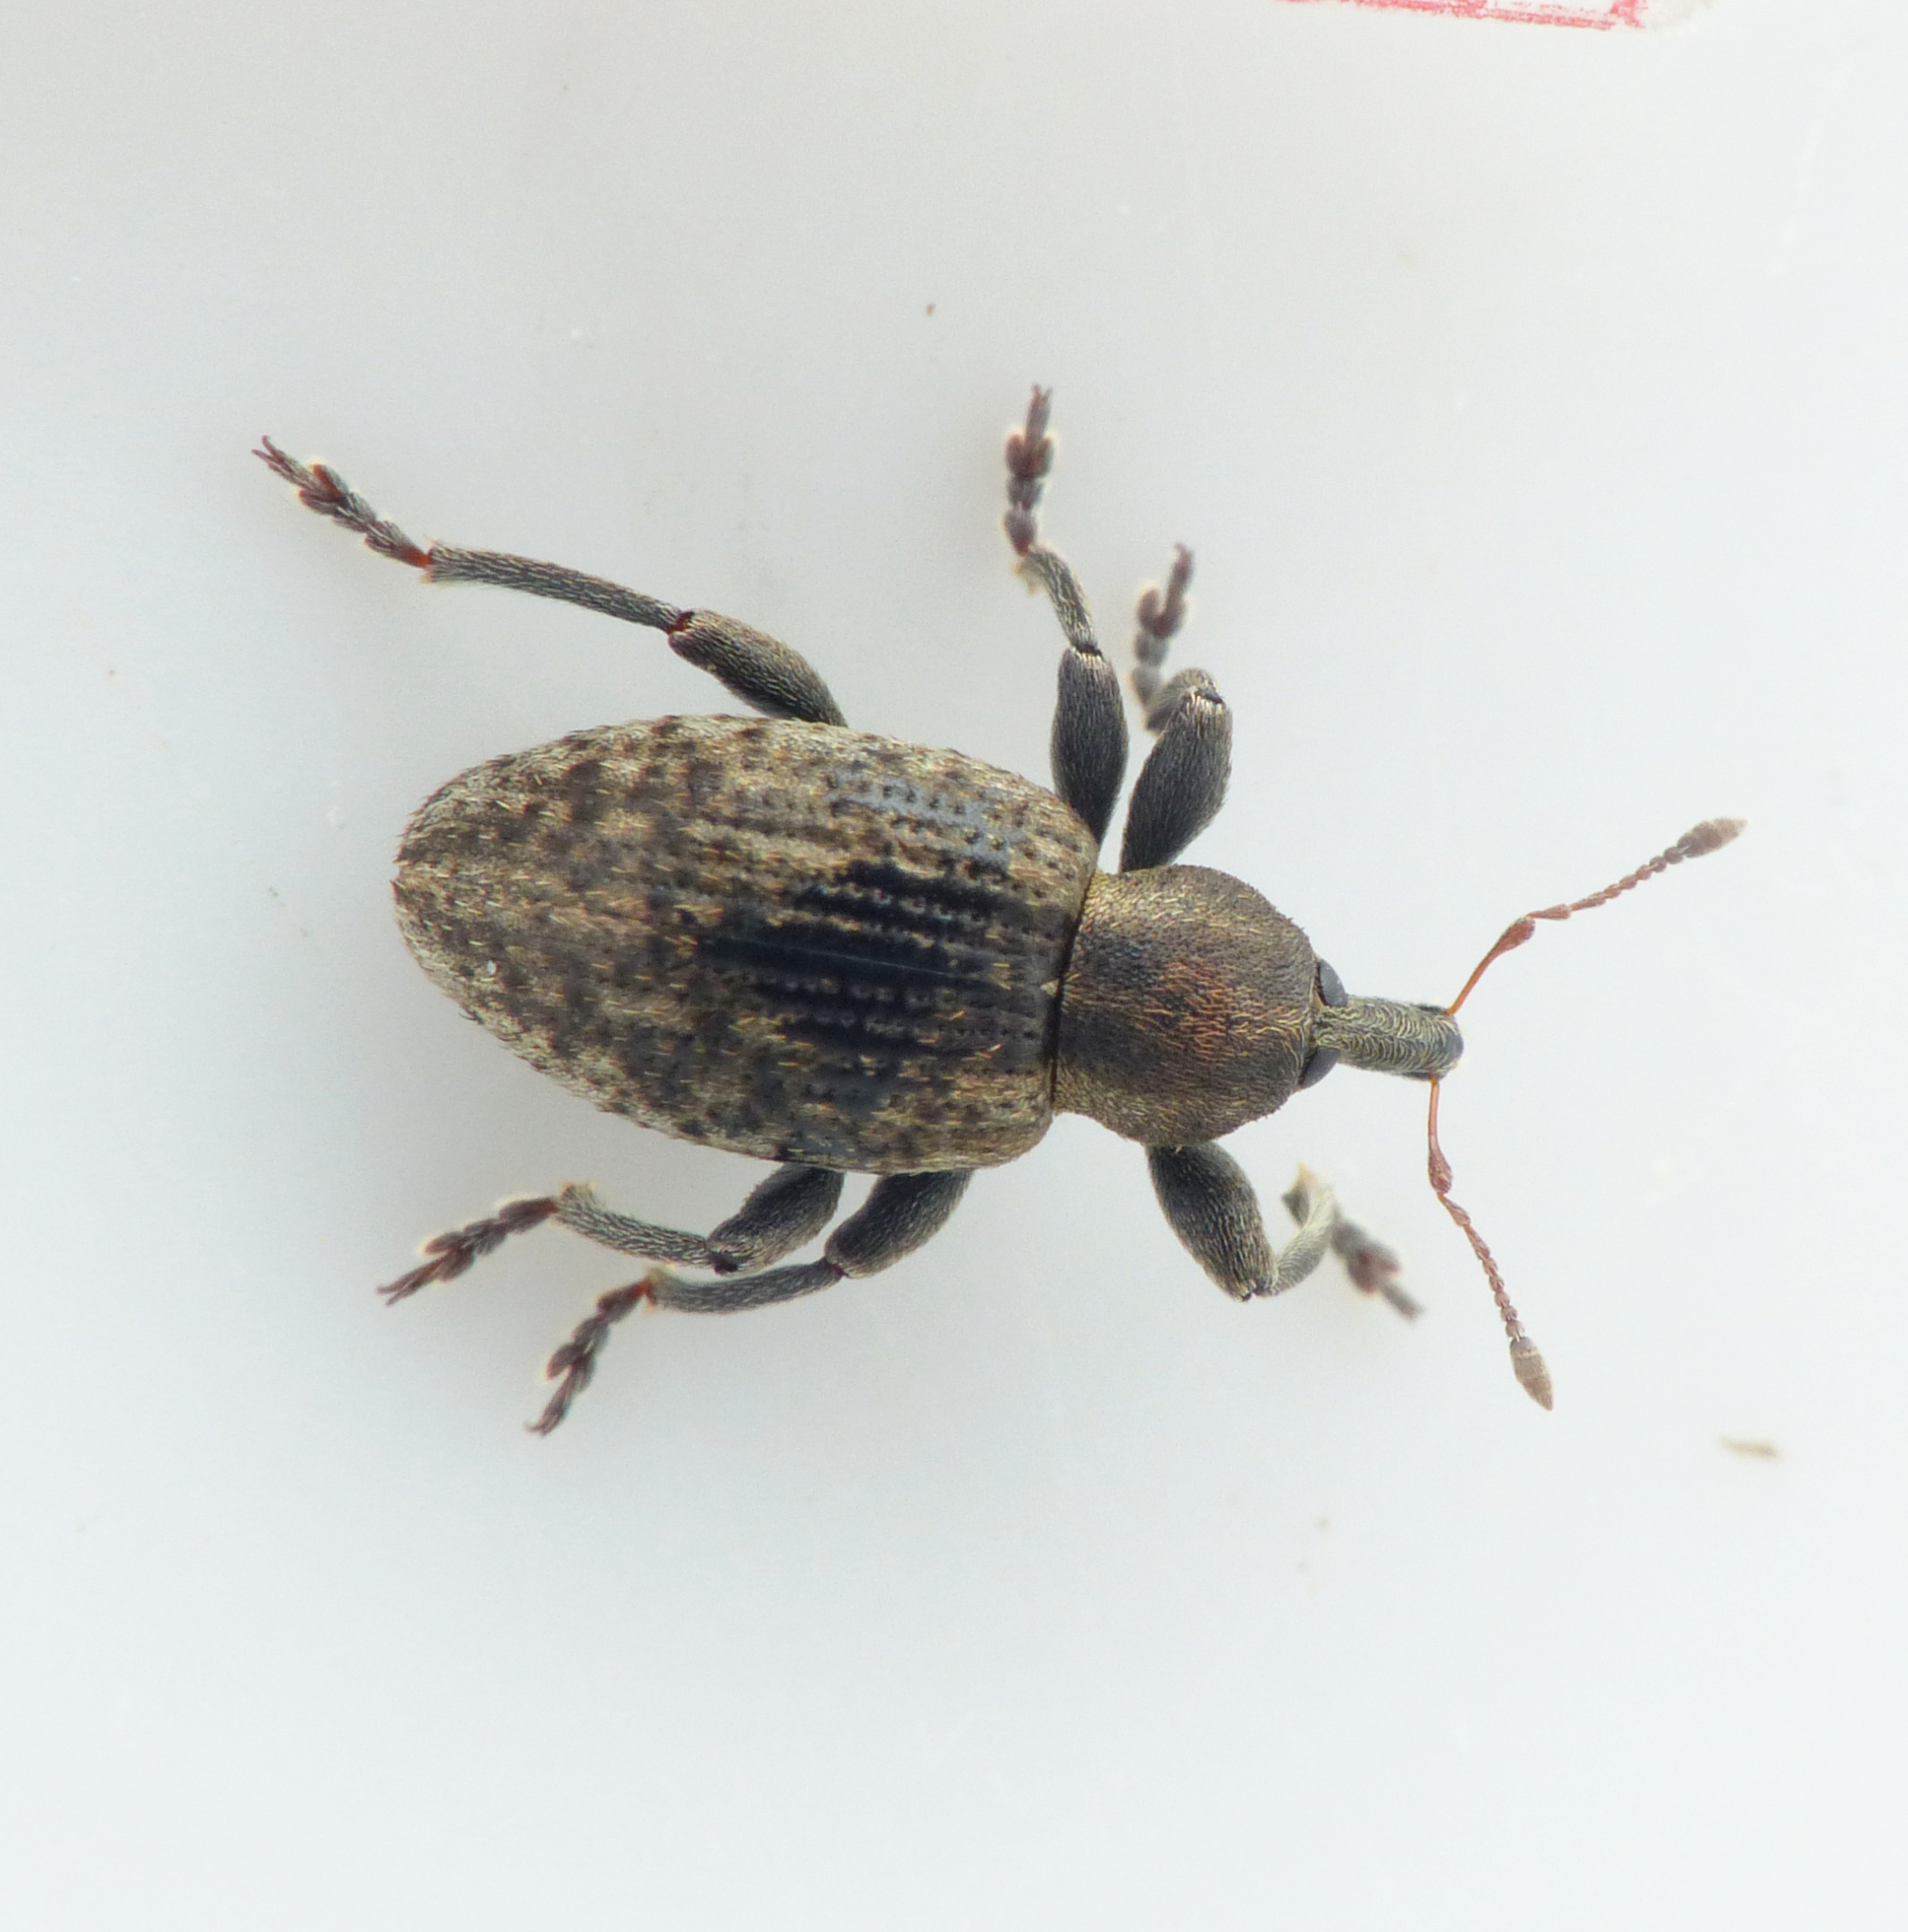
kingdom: Animalia
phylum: Arthropoda
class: Insecta
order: Coleoptera
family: Curculionidae
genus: Hypera
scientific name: Hypera miles
